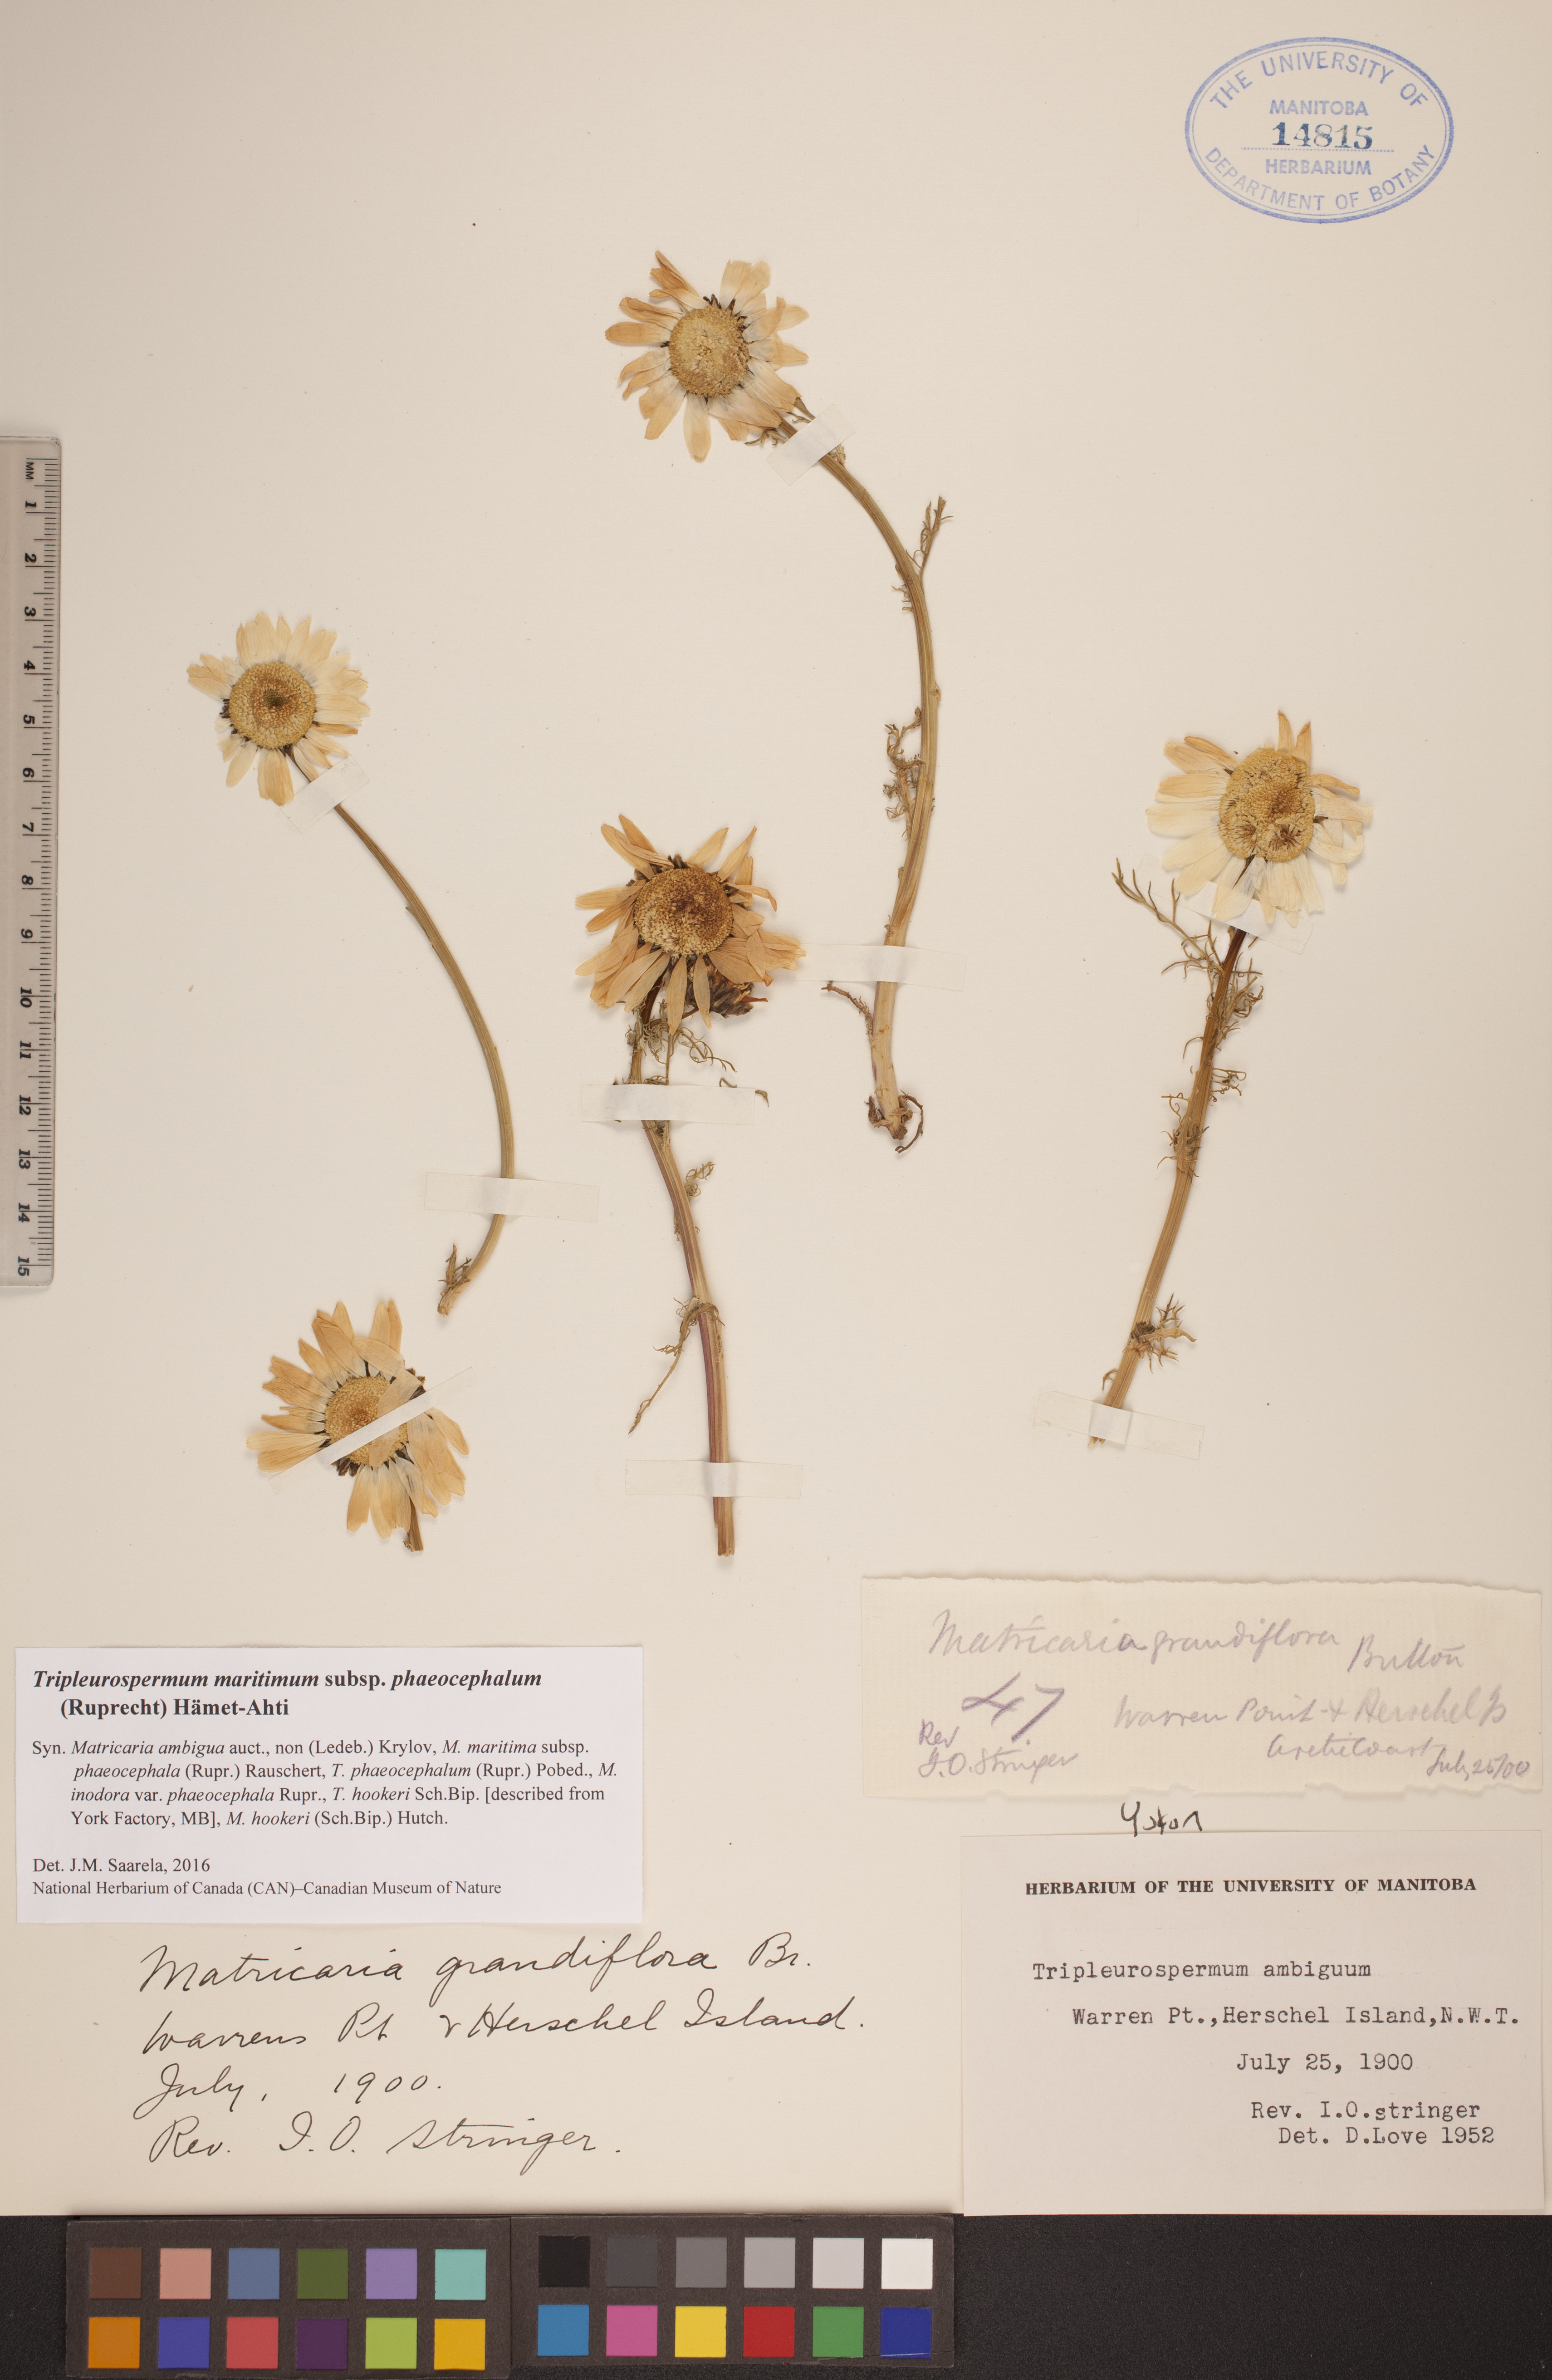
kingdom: Plantae
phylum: Tracheophyta
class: Magnoliopsida
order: Asterales
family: Asteraceae
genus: Tripleurospermum
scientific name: Tripleurospermum hookeri
